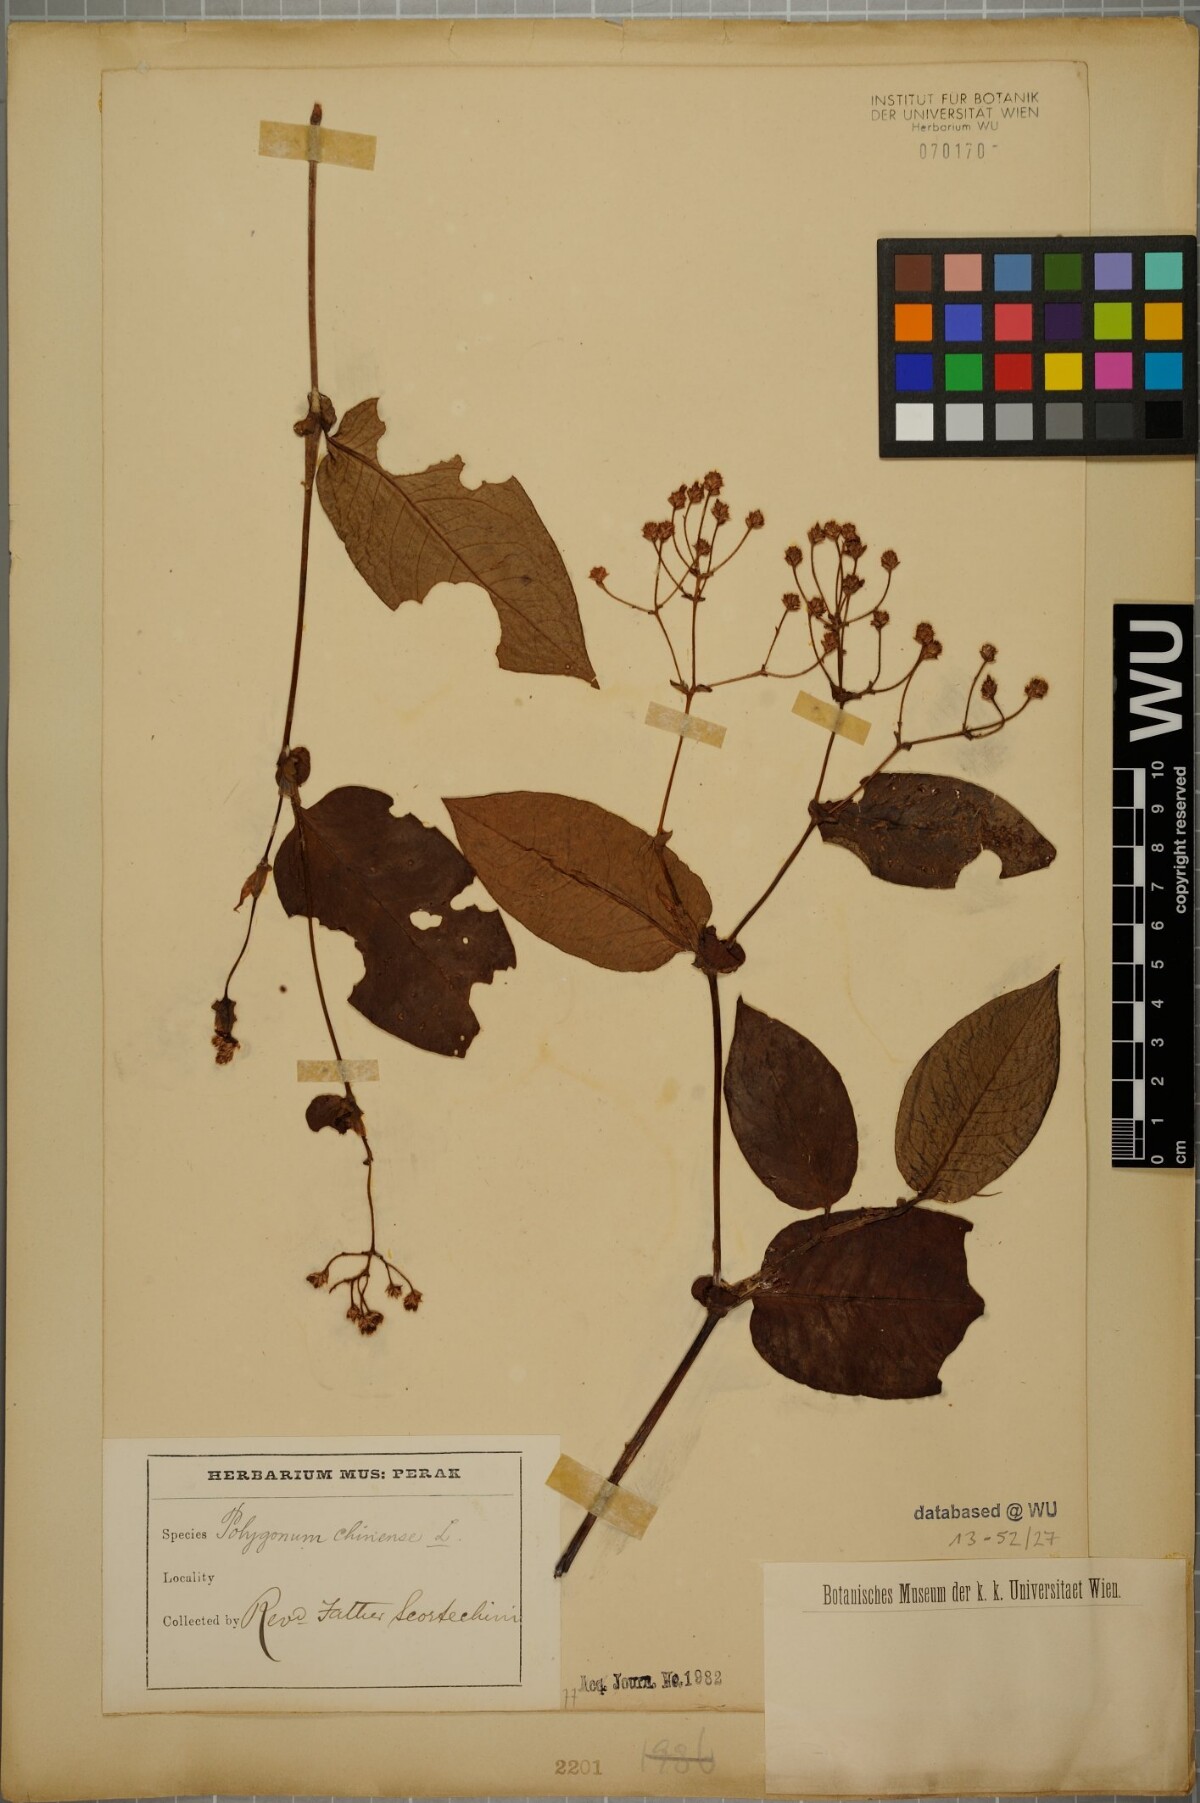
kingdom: Plantae
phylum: Tracheophyta
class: Magnoliopsida
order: Caryophyllales
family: Polygonaceae
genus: Persicaria
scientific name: Persicaria chinensis
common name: Chinese knotweed
